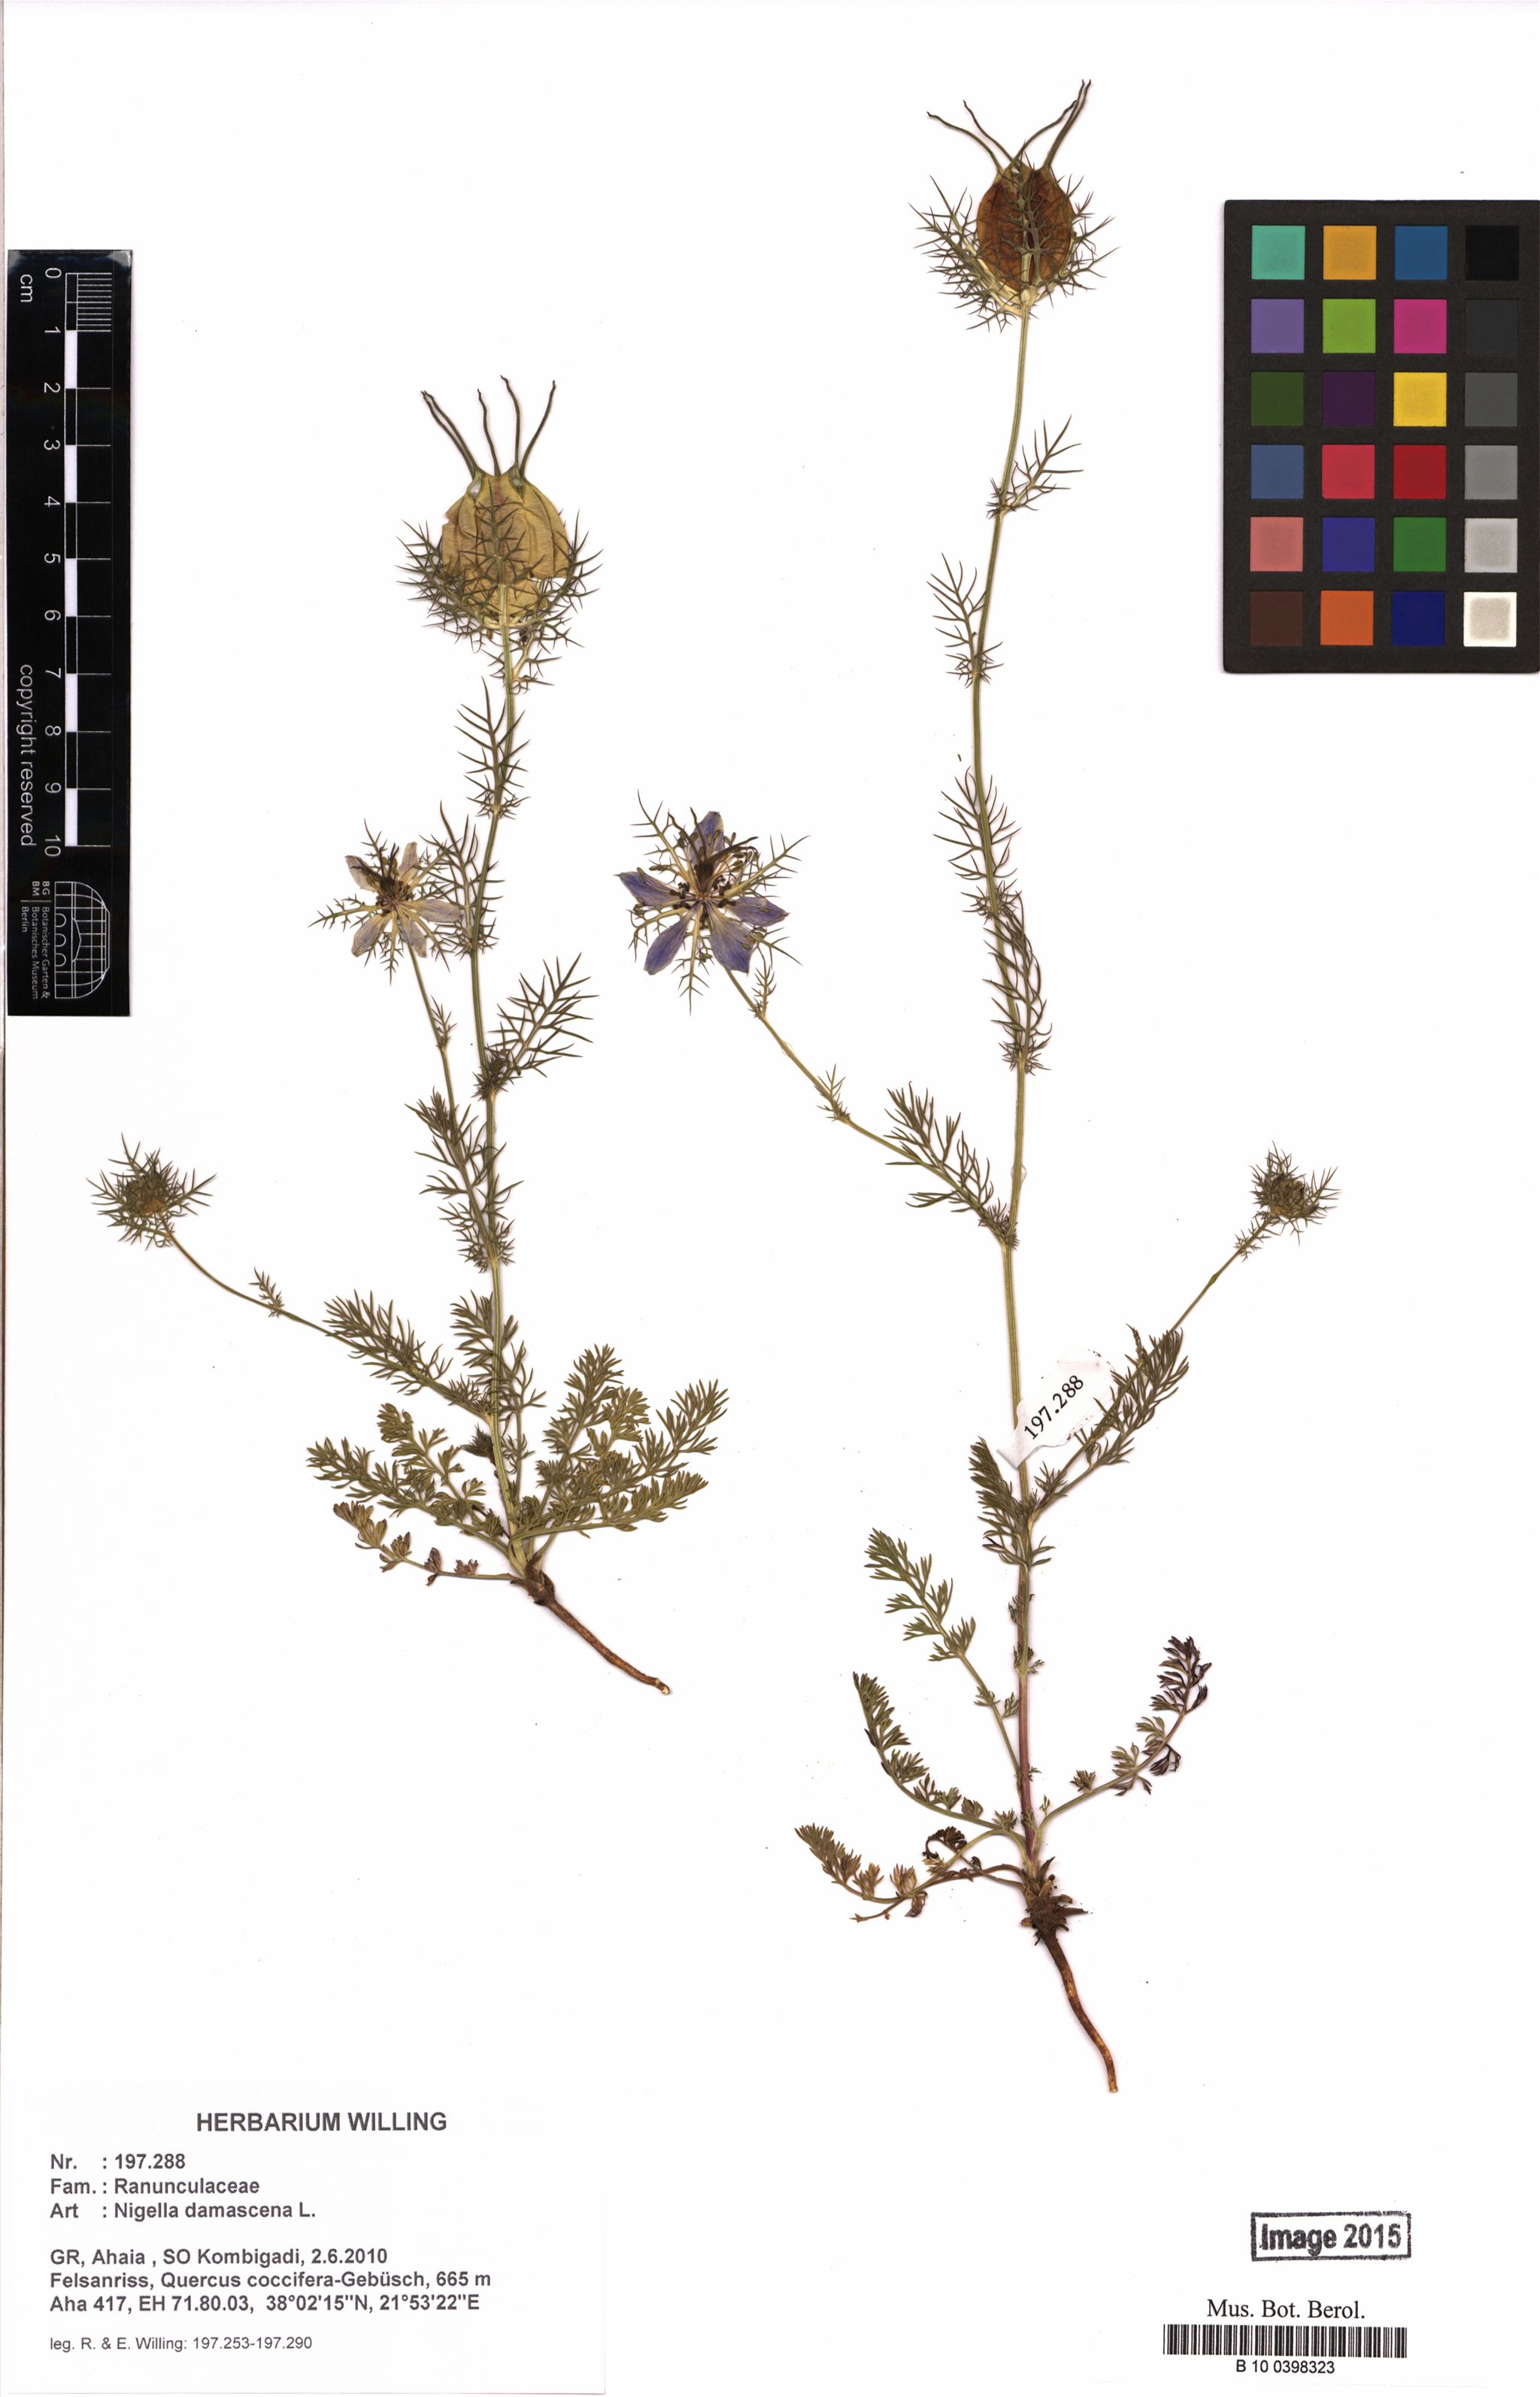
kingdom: Plantae
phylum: Tracheophyta
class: Magnoliopsida
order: Ranunculales
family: Ranunculaceae
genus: Nigella
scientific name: Nigella damascena
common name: Love-in-a-mist
